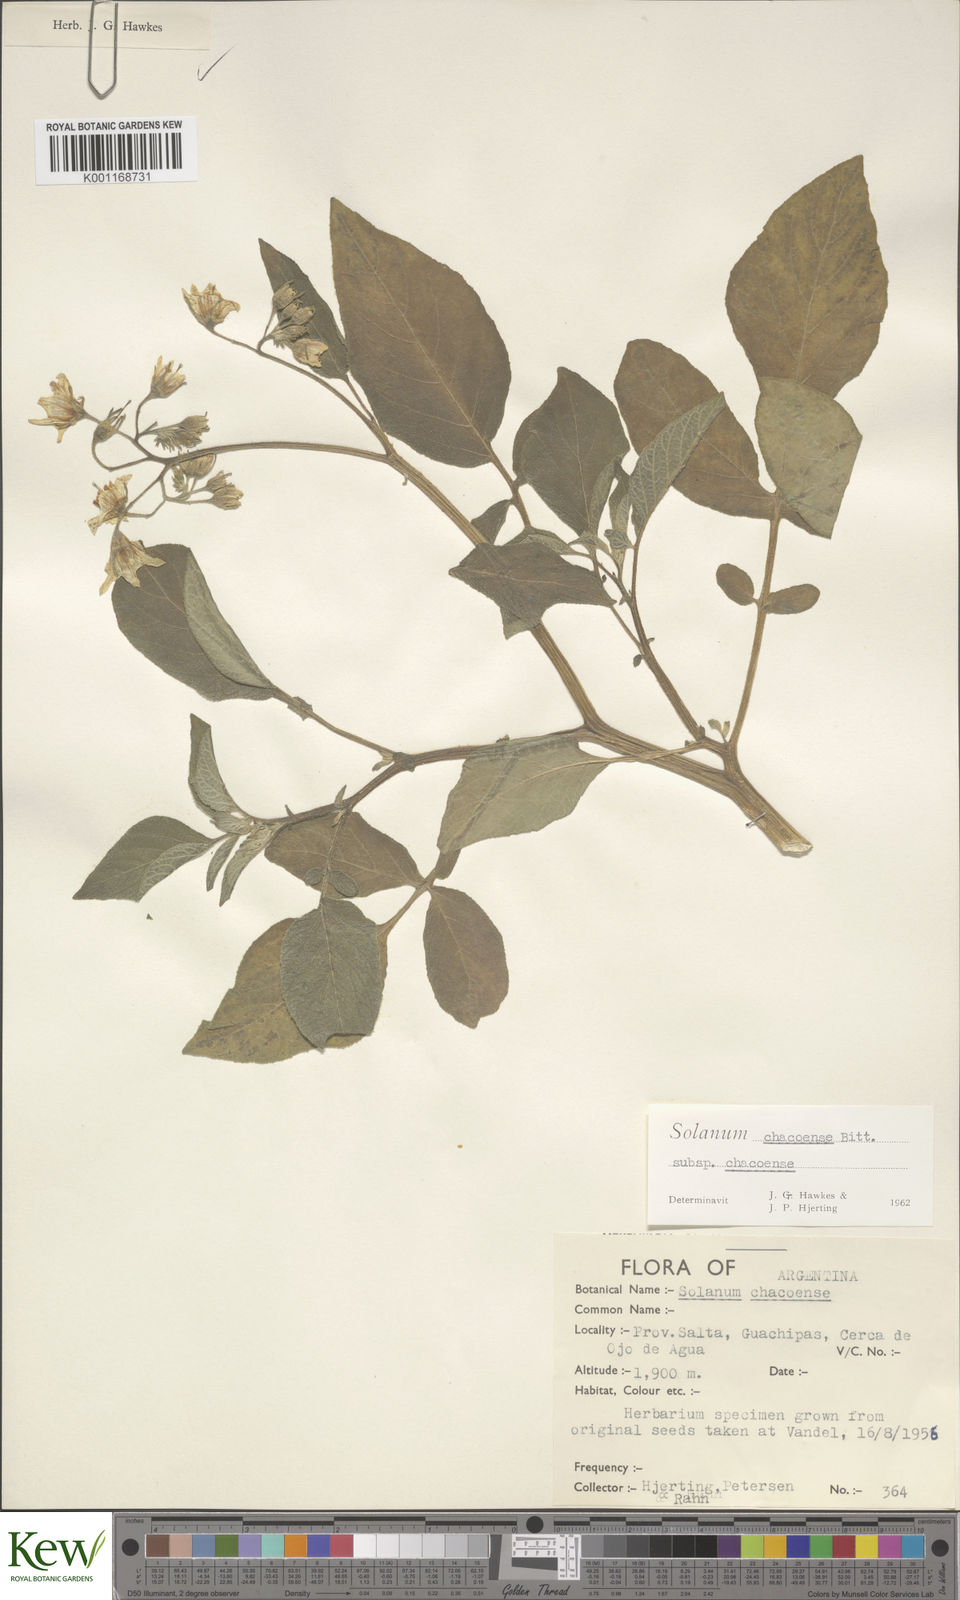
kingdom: Plantae
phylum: Tracheophyta
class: Magnoliopsida
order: Solanales
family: Solanaceae
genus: Solanum
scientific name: Solanum chacoense
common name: Chaco potato
